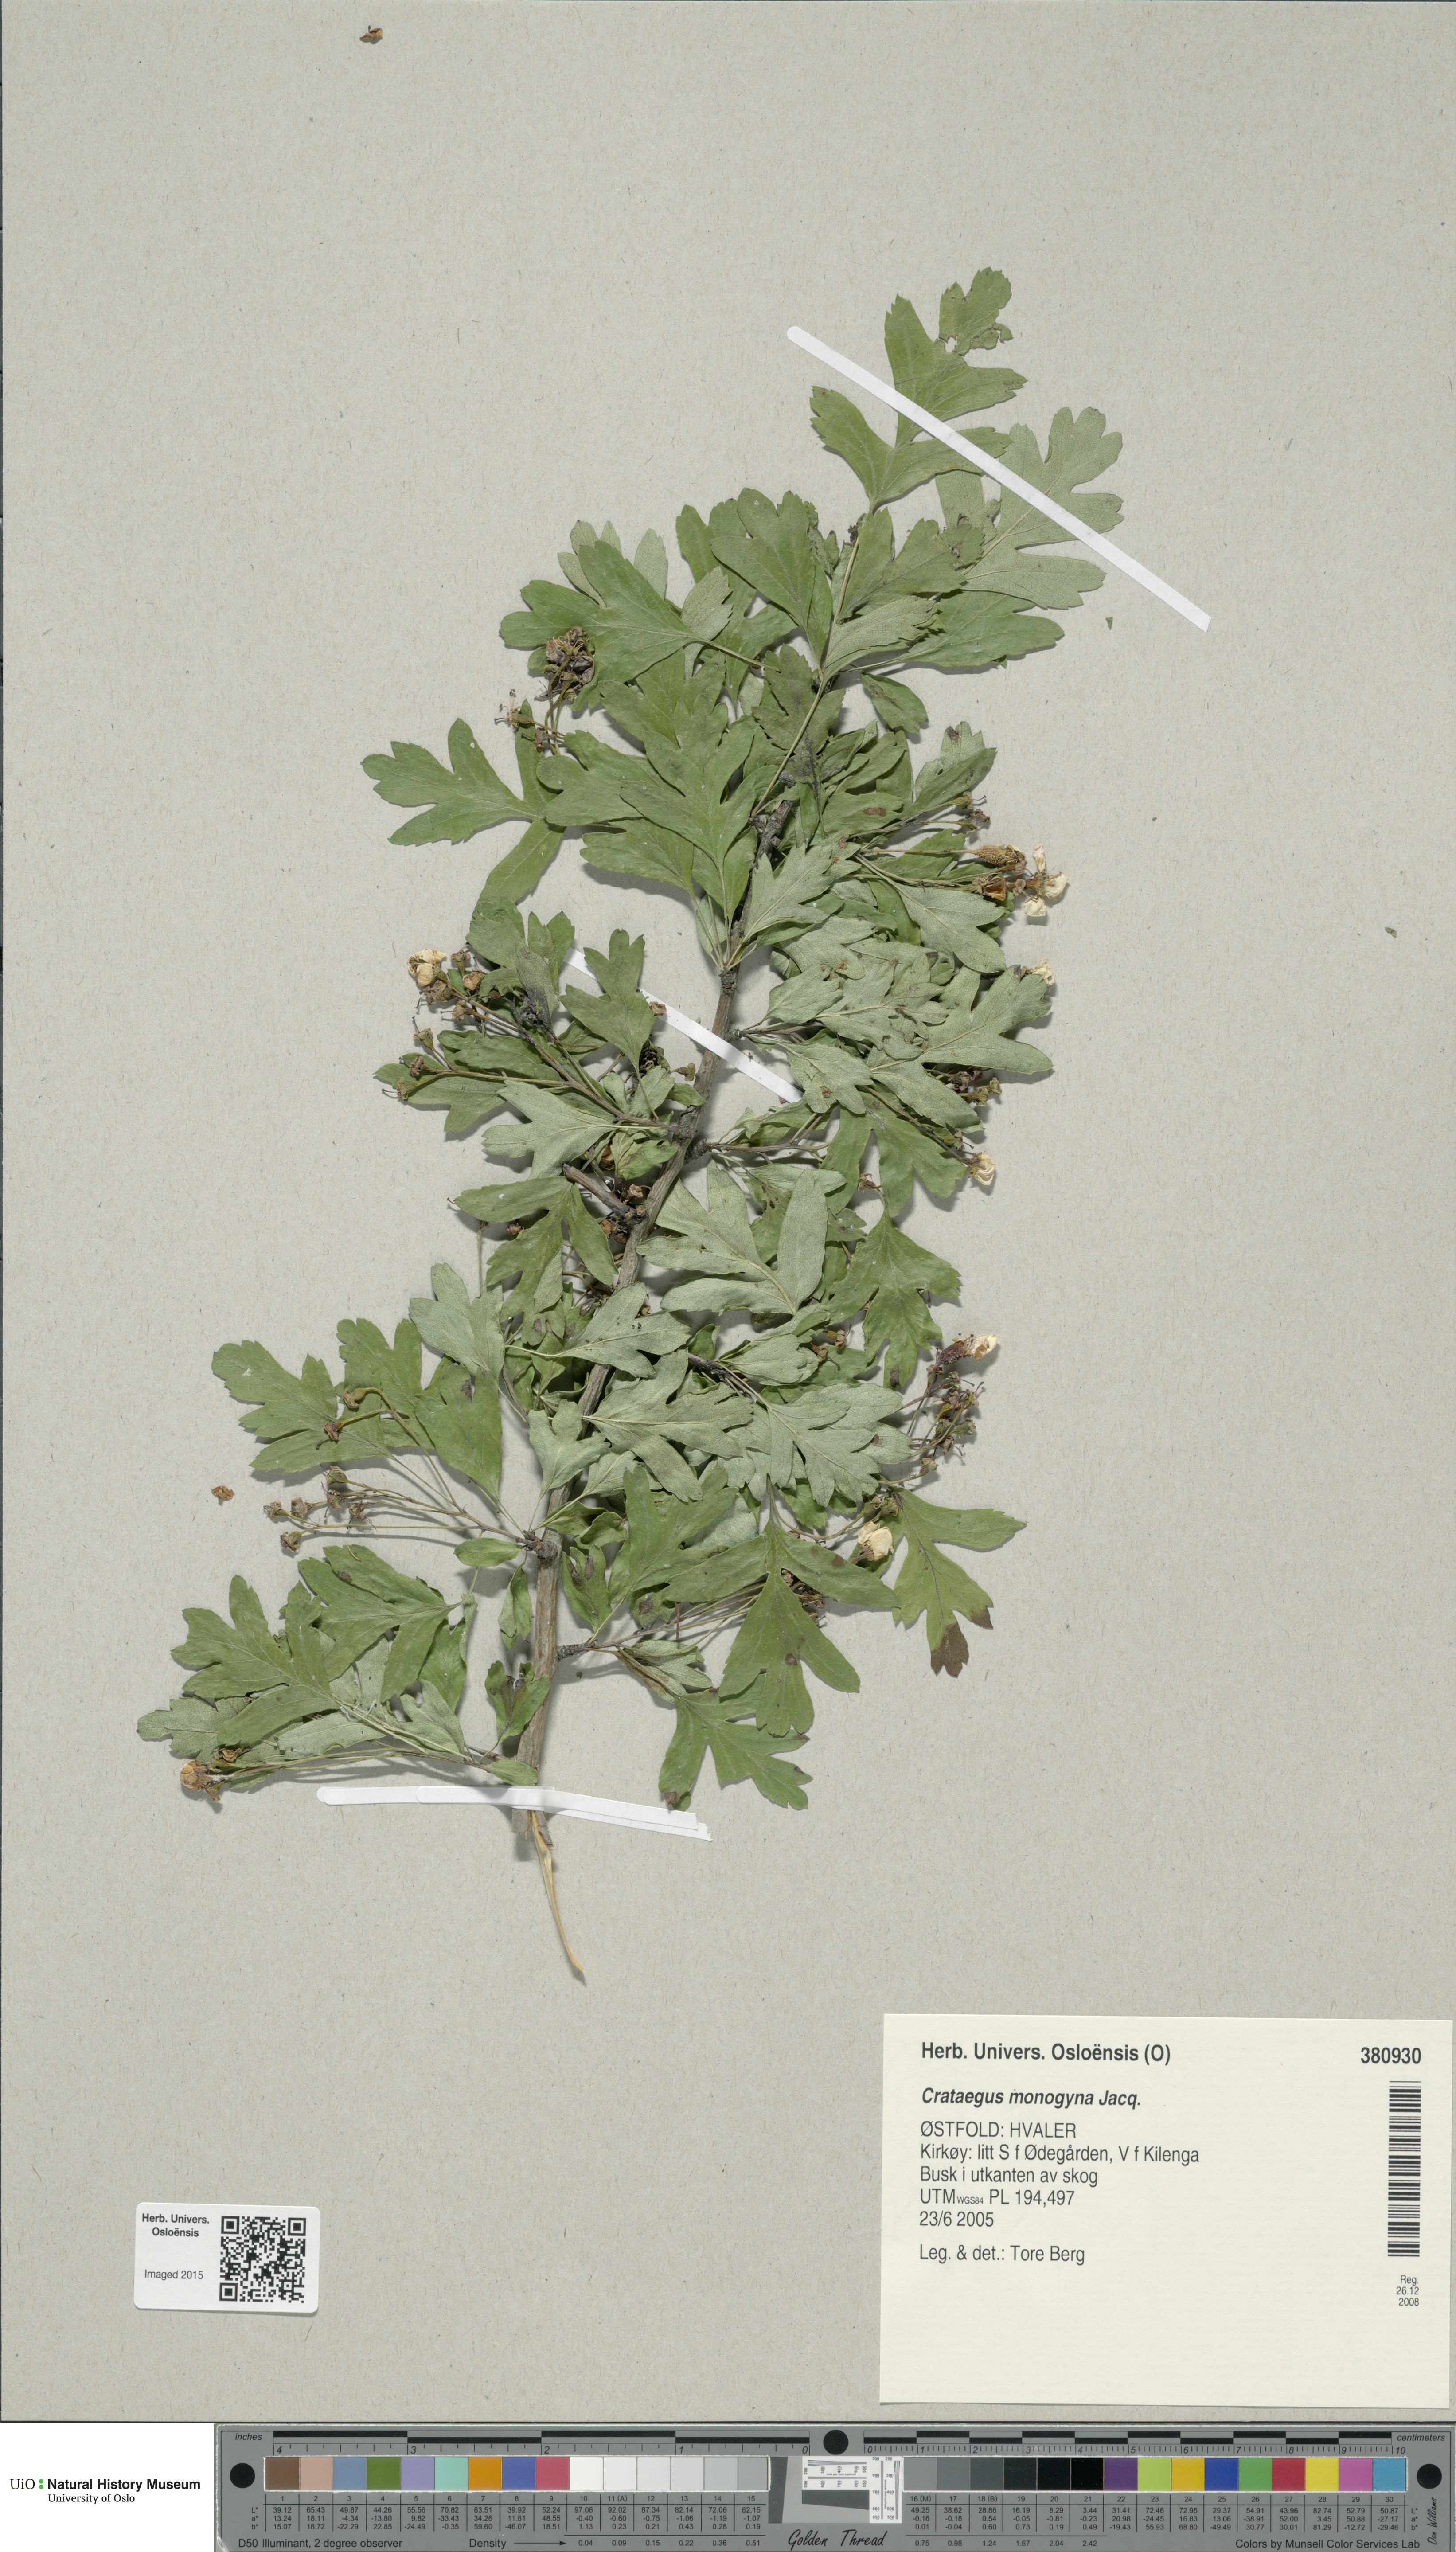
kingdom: Plantae
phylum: Tracheophyta
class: Magnoliopsida
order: Rosales
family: Rosaceae
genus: Crataegus
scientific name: Crataegus monogyna
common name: Hawthorn
